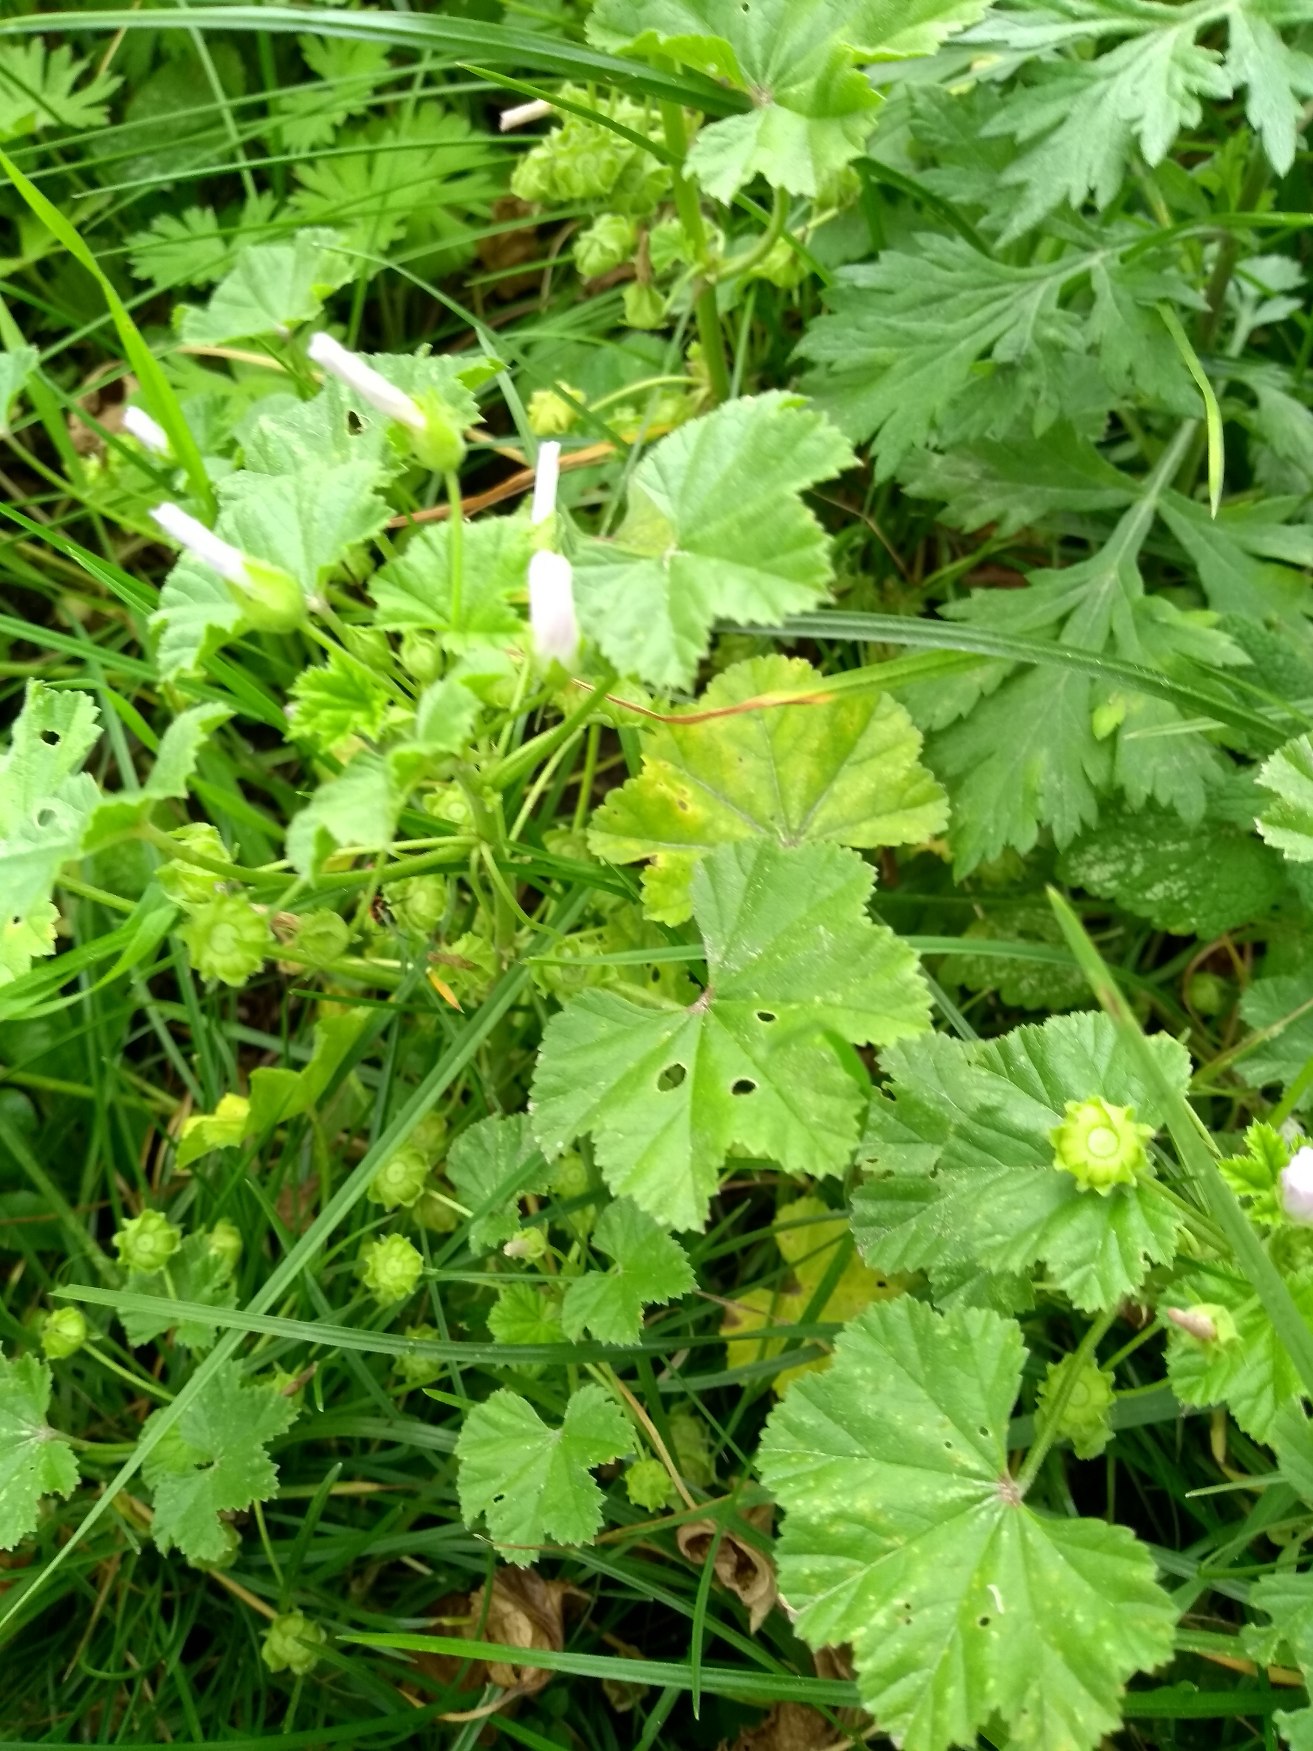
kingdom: Plantae
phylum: Tracheophyta
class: Magnoliopsida
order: Malvales
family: Malvaceae
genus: Malva
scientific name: Malva neglecta
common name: Rundbladet katost
